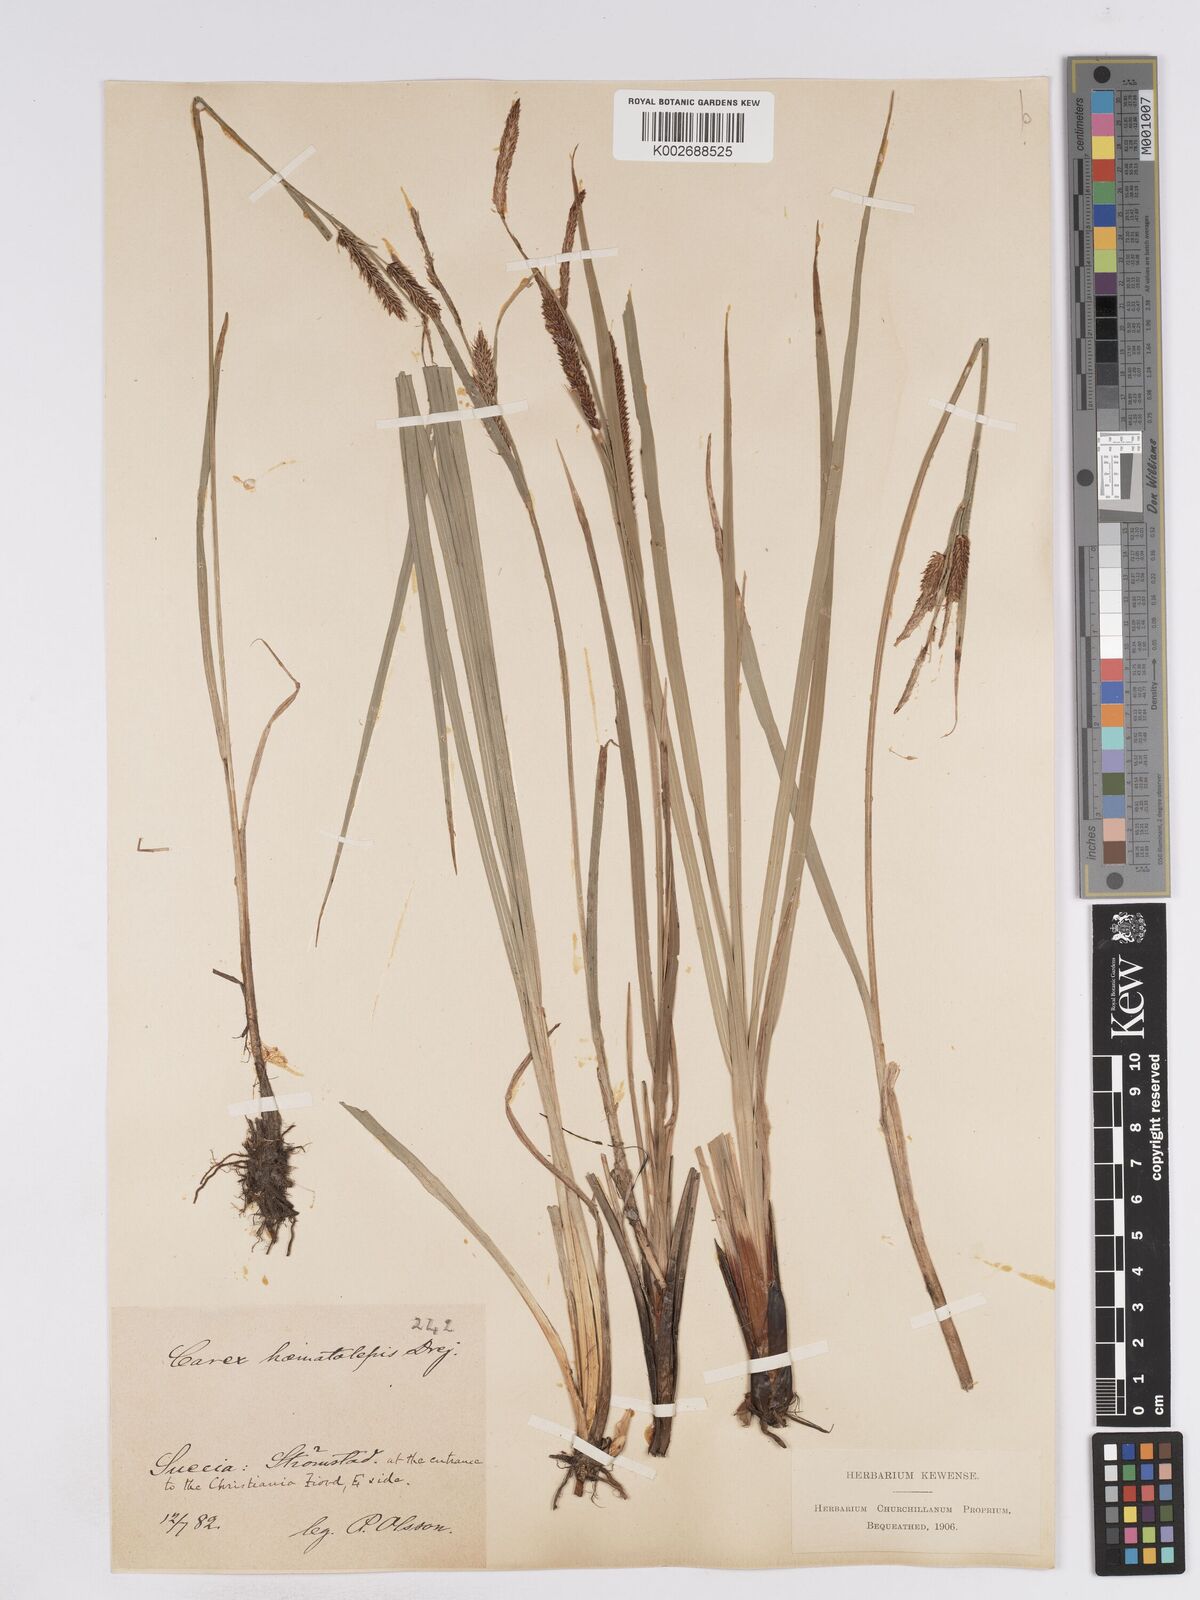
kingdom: Plantae
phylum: Tracheophyta
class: Liliopsida
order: Poales
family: Cyperaceae
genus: Carex
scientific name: Carex recta
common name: Estuarine sedge
